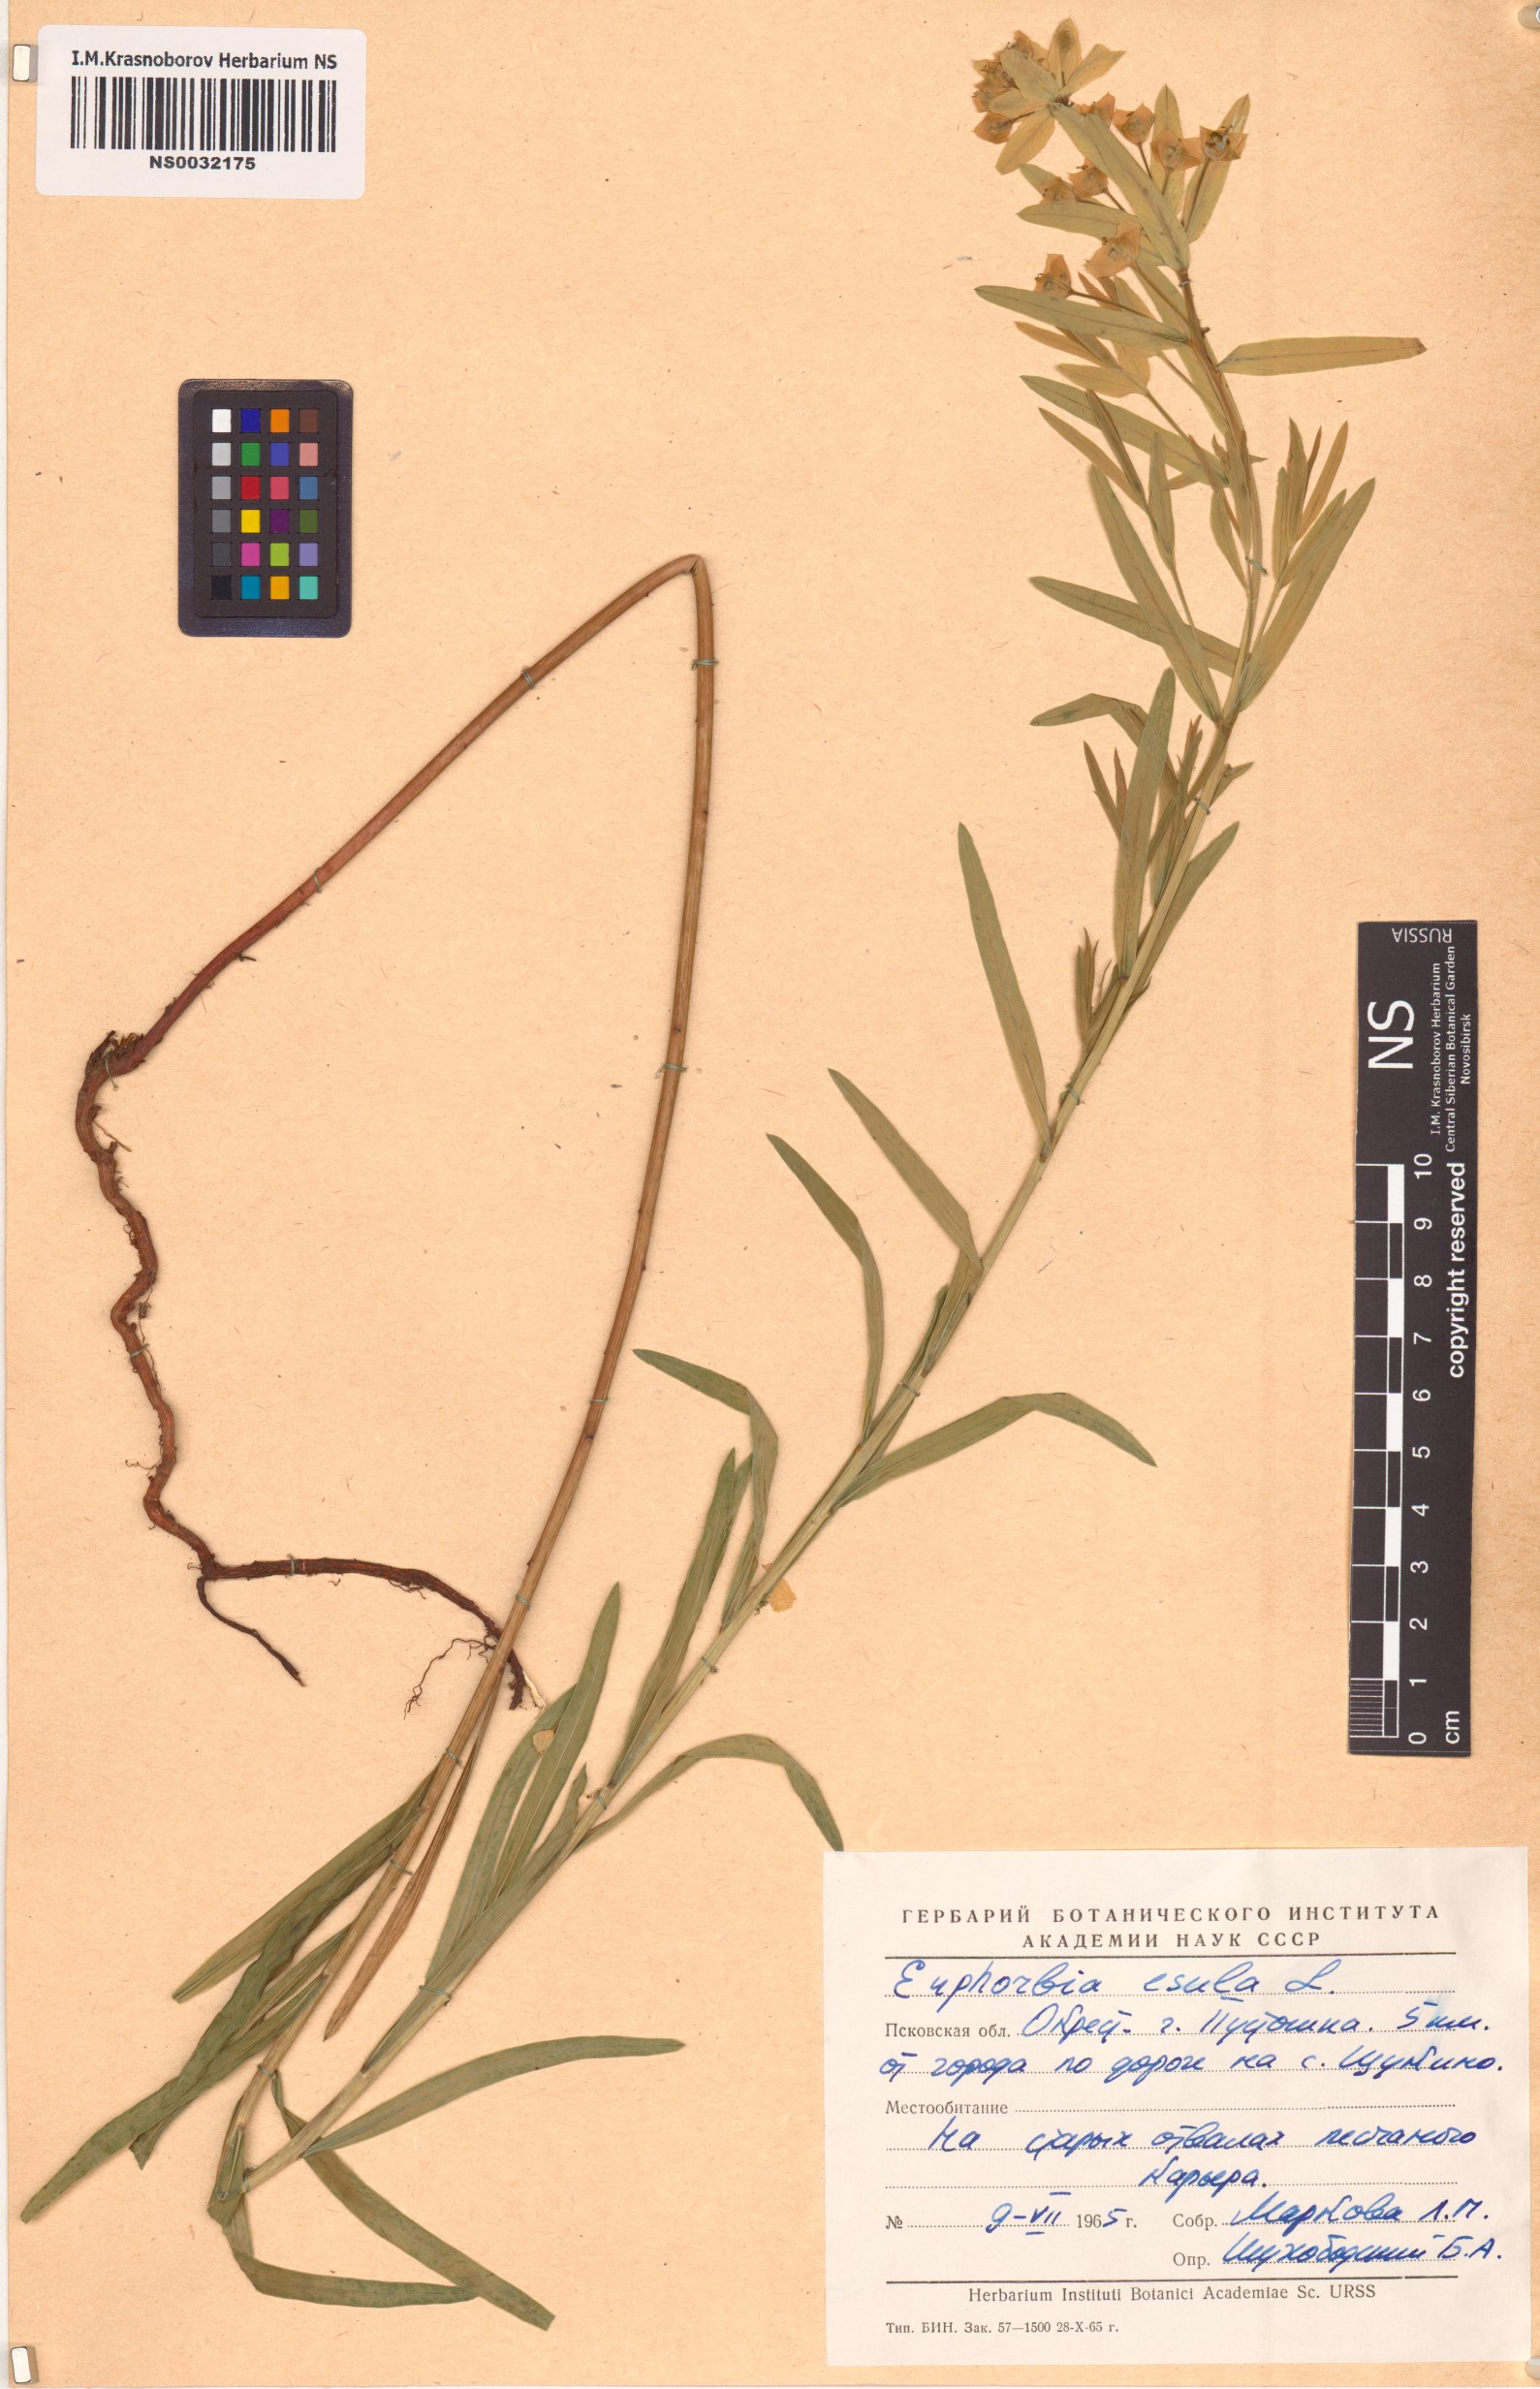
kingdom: Plantae
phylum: Tracheophyta
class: Magnoliopsida
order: Malpighiales
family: Euphorbiaceae
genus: Euphorbia
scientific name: Euphorbia esula
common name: Leafy spurge
